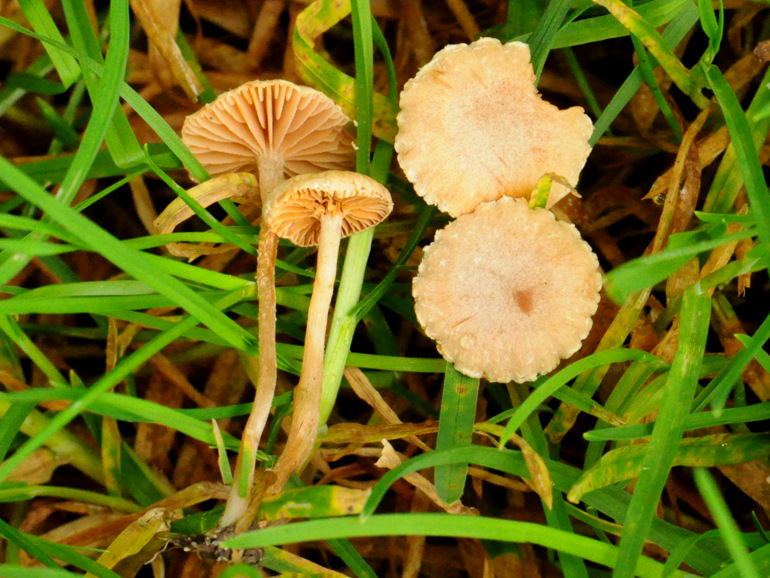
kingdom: Fungi
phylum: Basidiomycota
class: Agaricomycetes
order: Agaricales
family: Tubariaceae
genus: Tubaria
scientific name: Tubaria conspersa
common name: bleg fnughat
